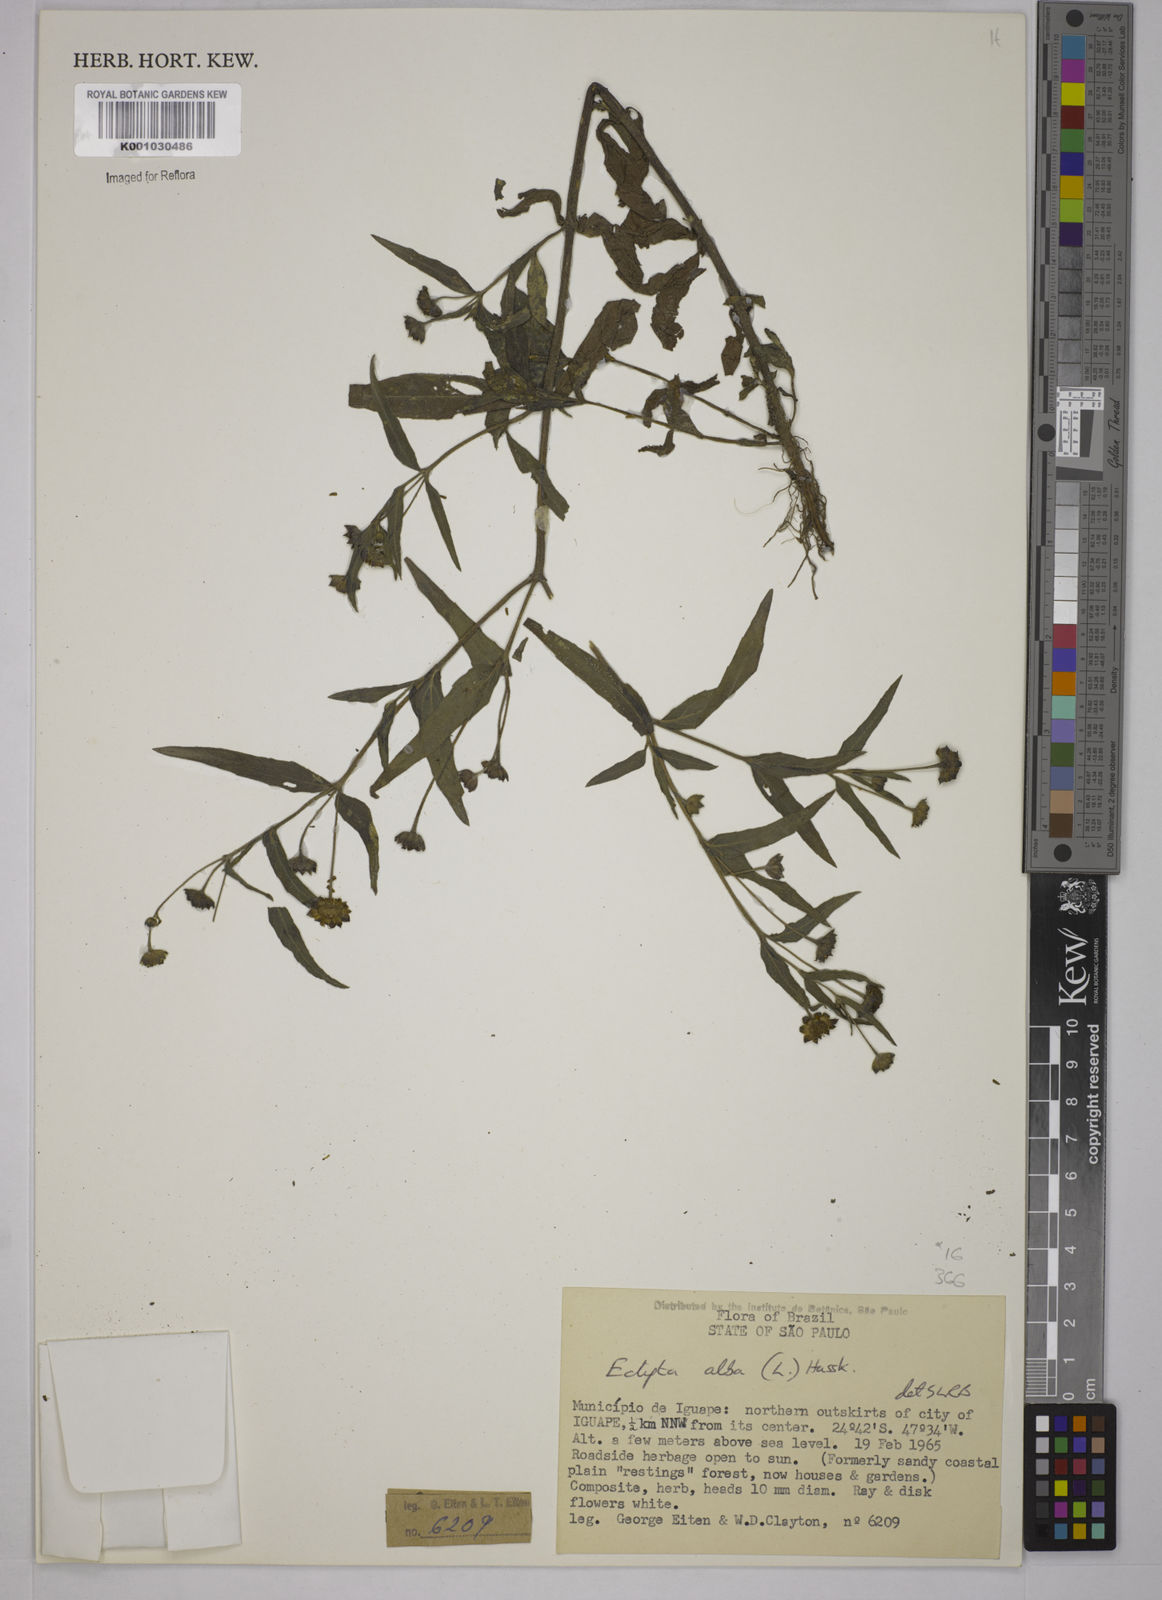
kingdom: Plantae
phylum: Tracheophyta
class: Magnoliopsida
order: Asterales
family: Asteraceae
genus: Eclipta
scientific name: Eclipta prostrata
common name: False daisy
